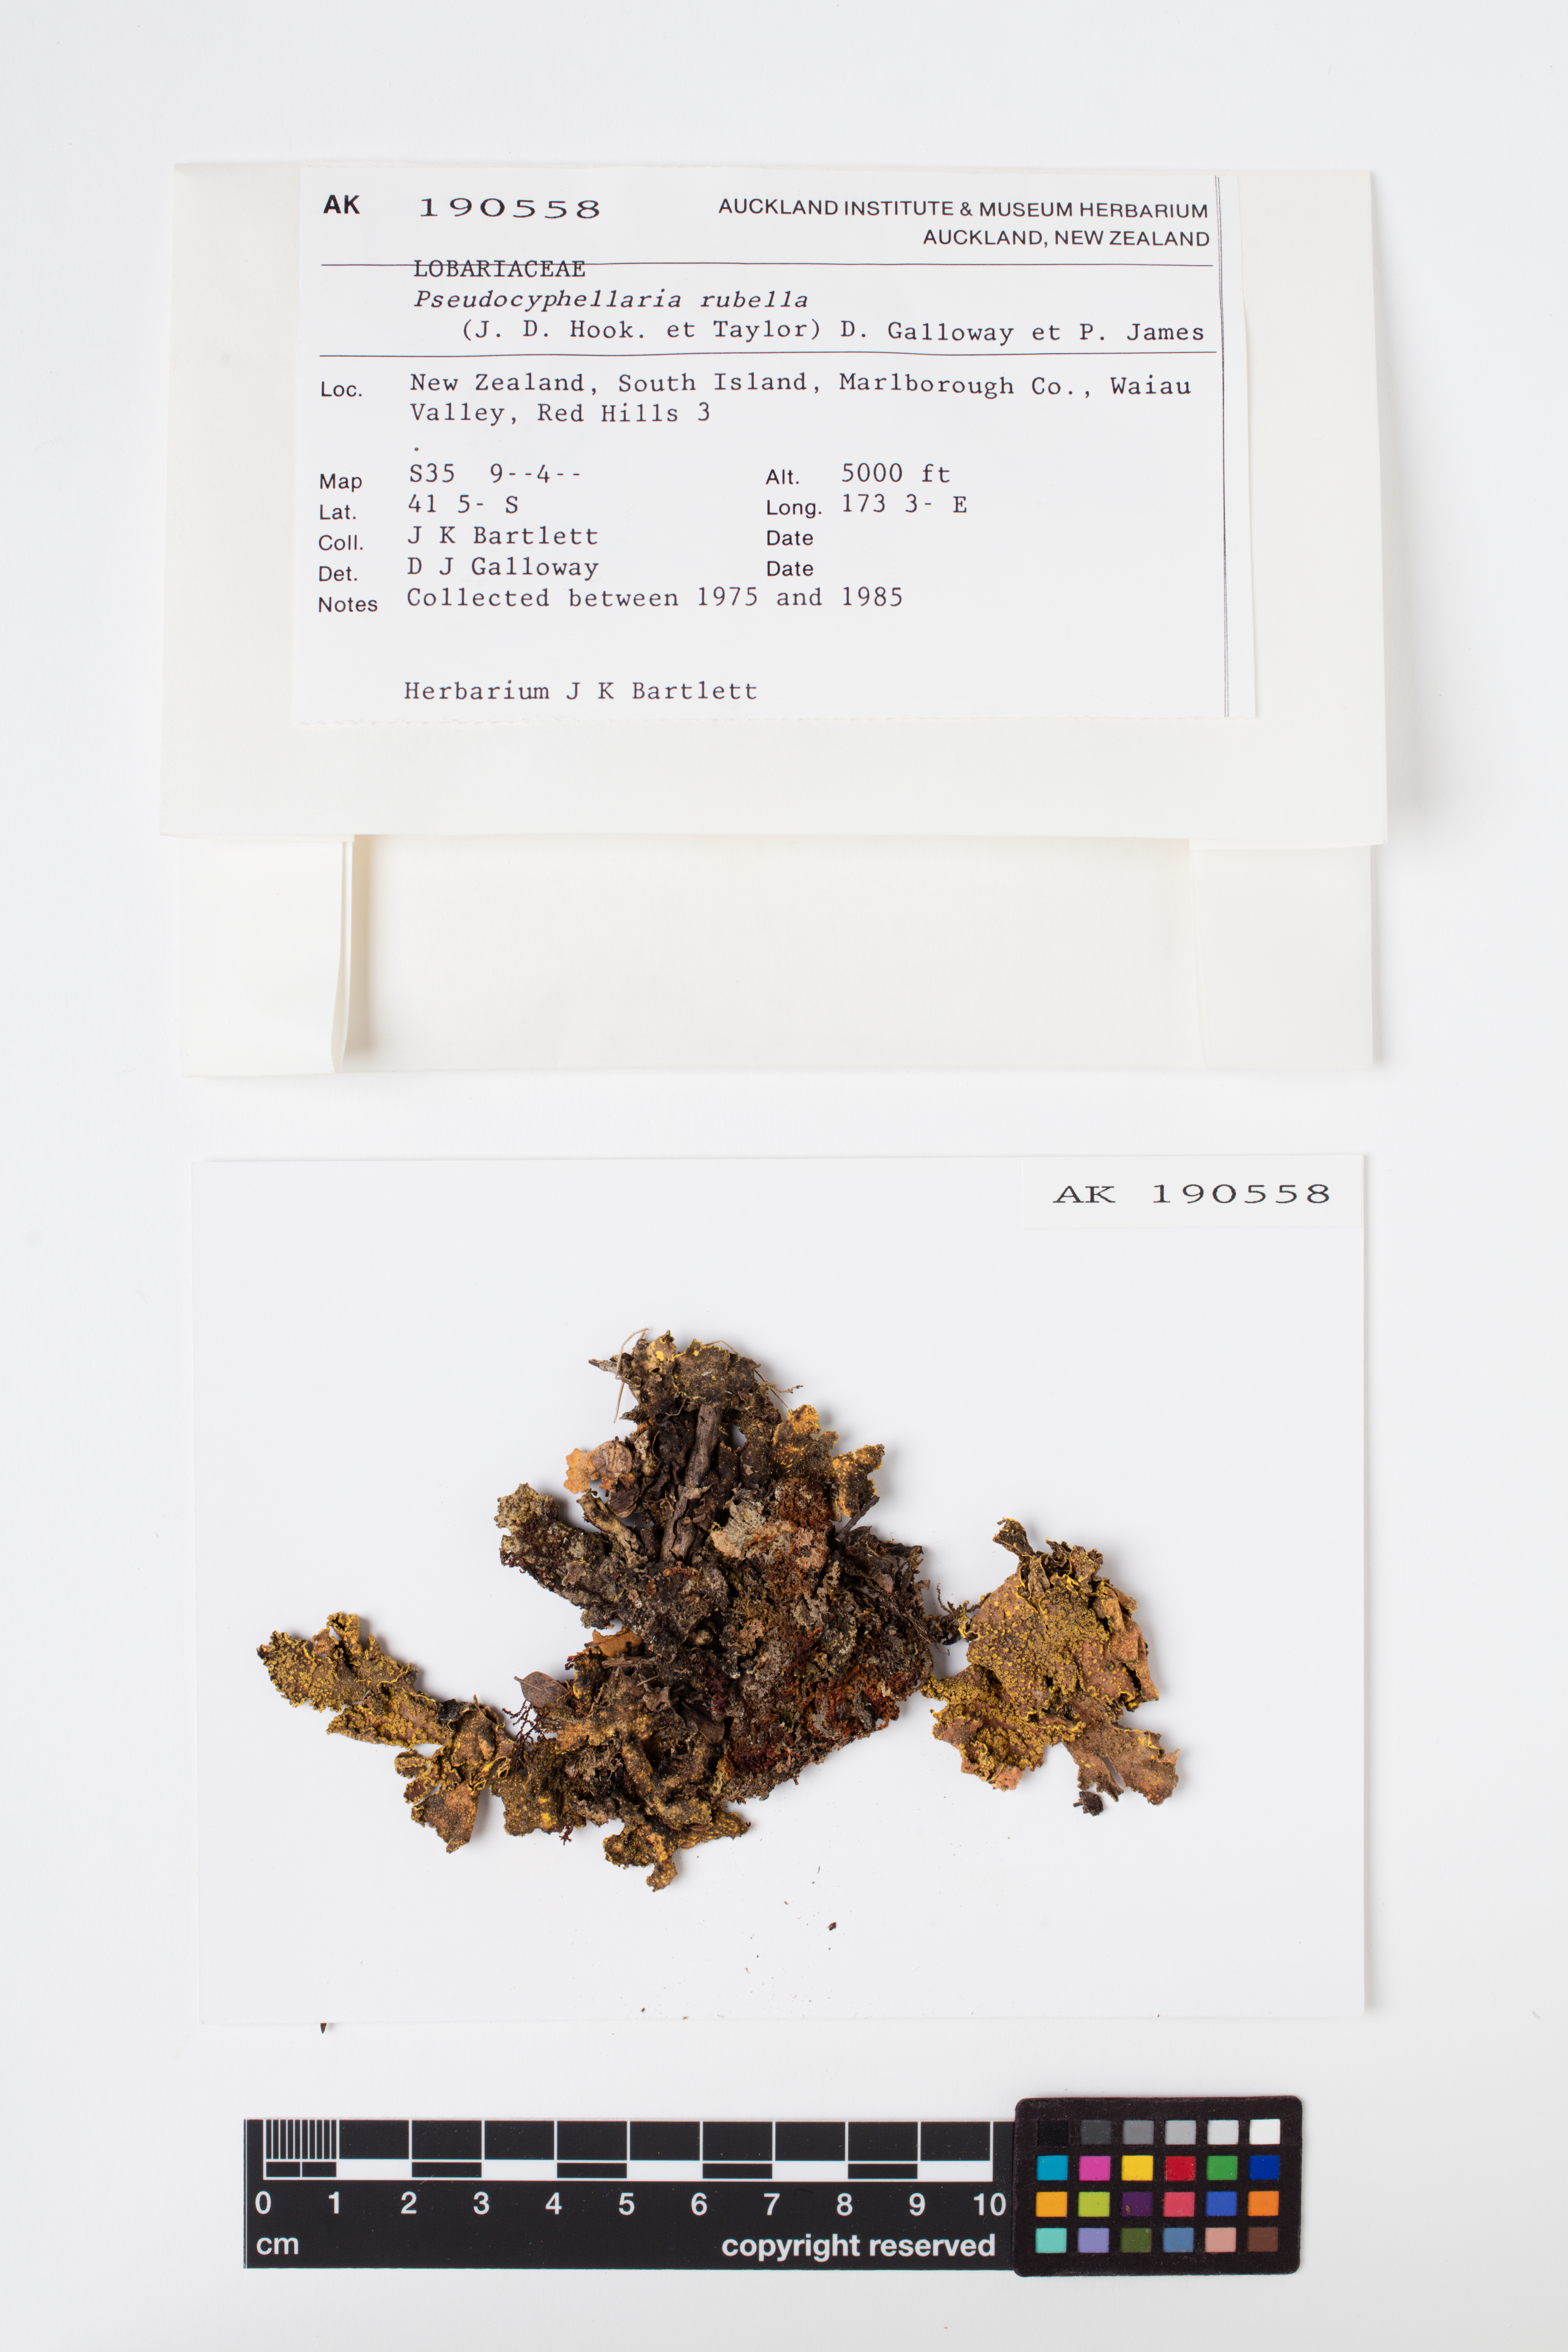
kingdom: Fungi
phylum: Ascomycota
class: Lecanoromycetes
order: Peltigerales
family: Lobariaceae
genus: Pseudocyphellaria
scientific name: Pseudocyphellaria rubella
